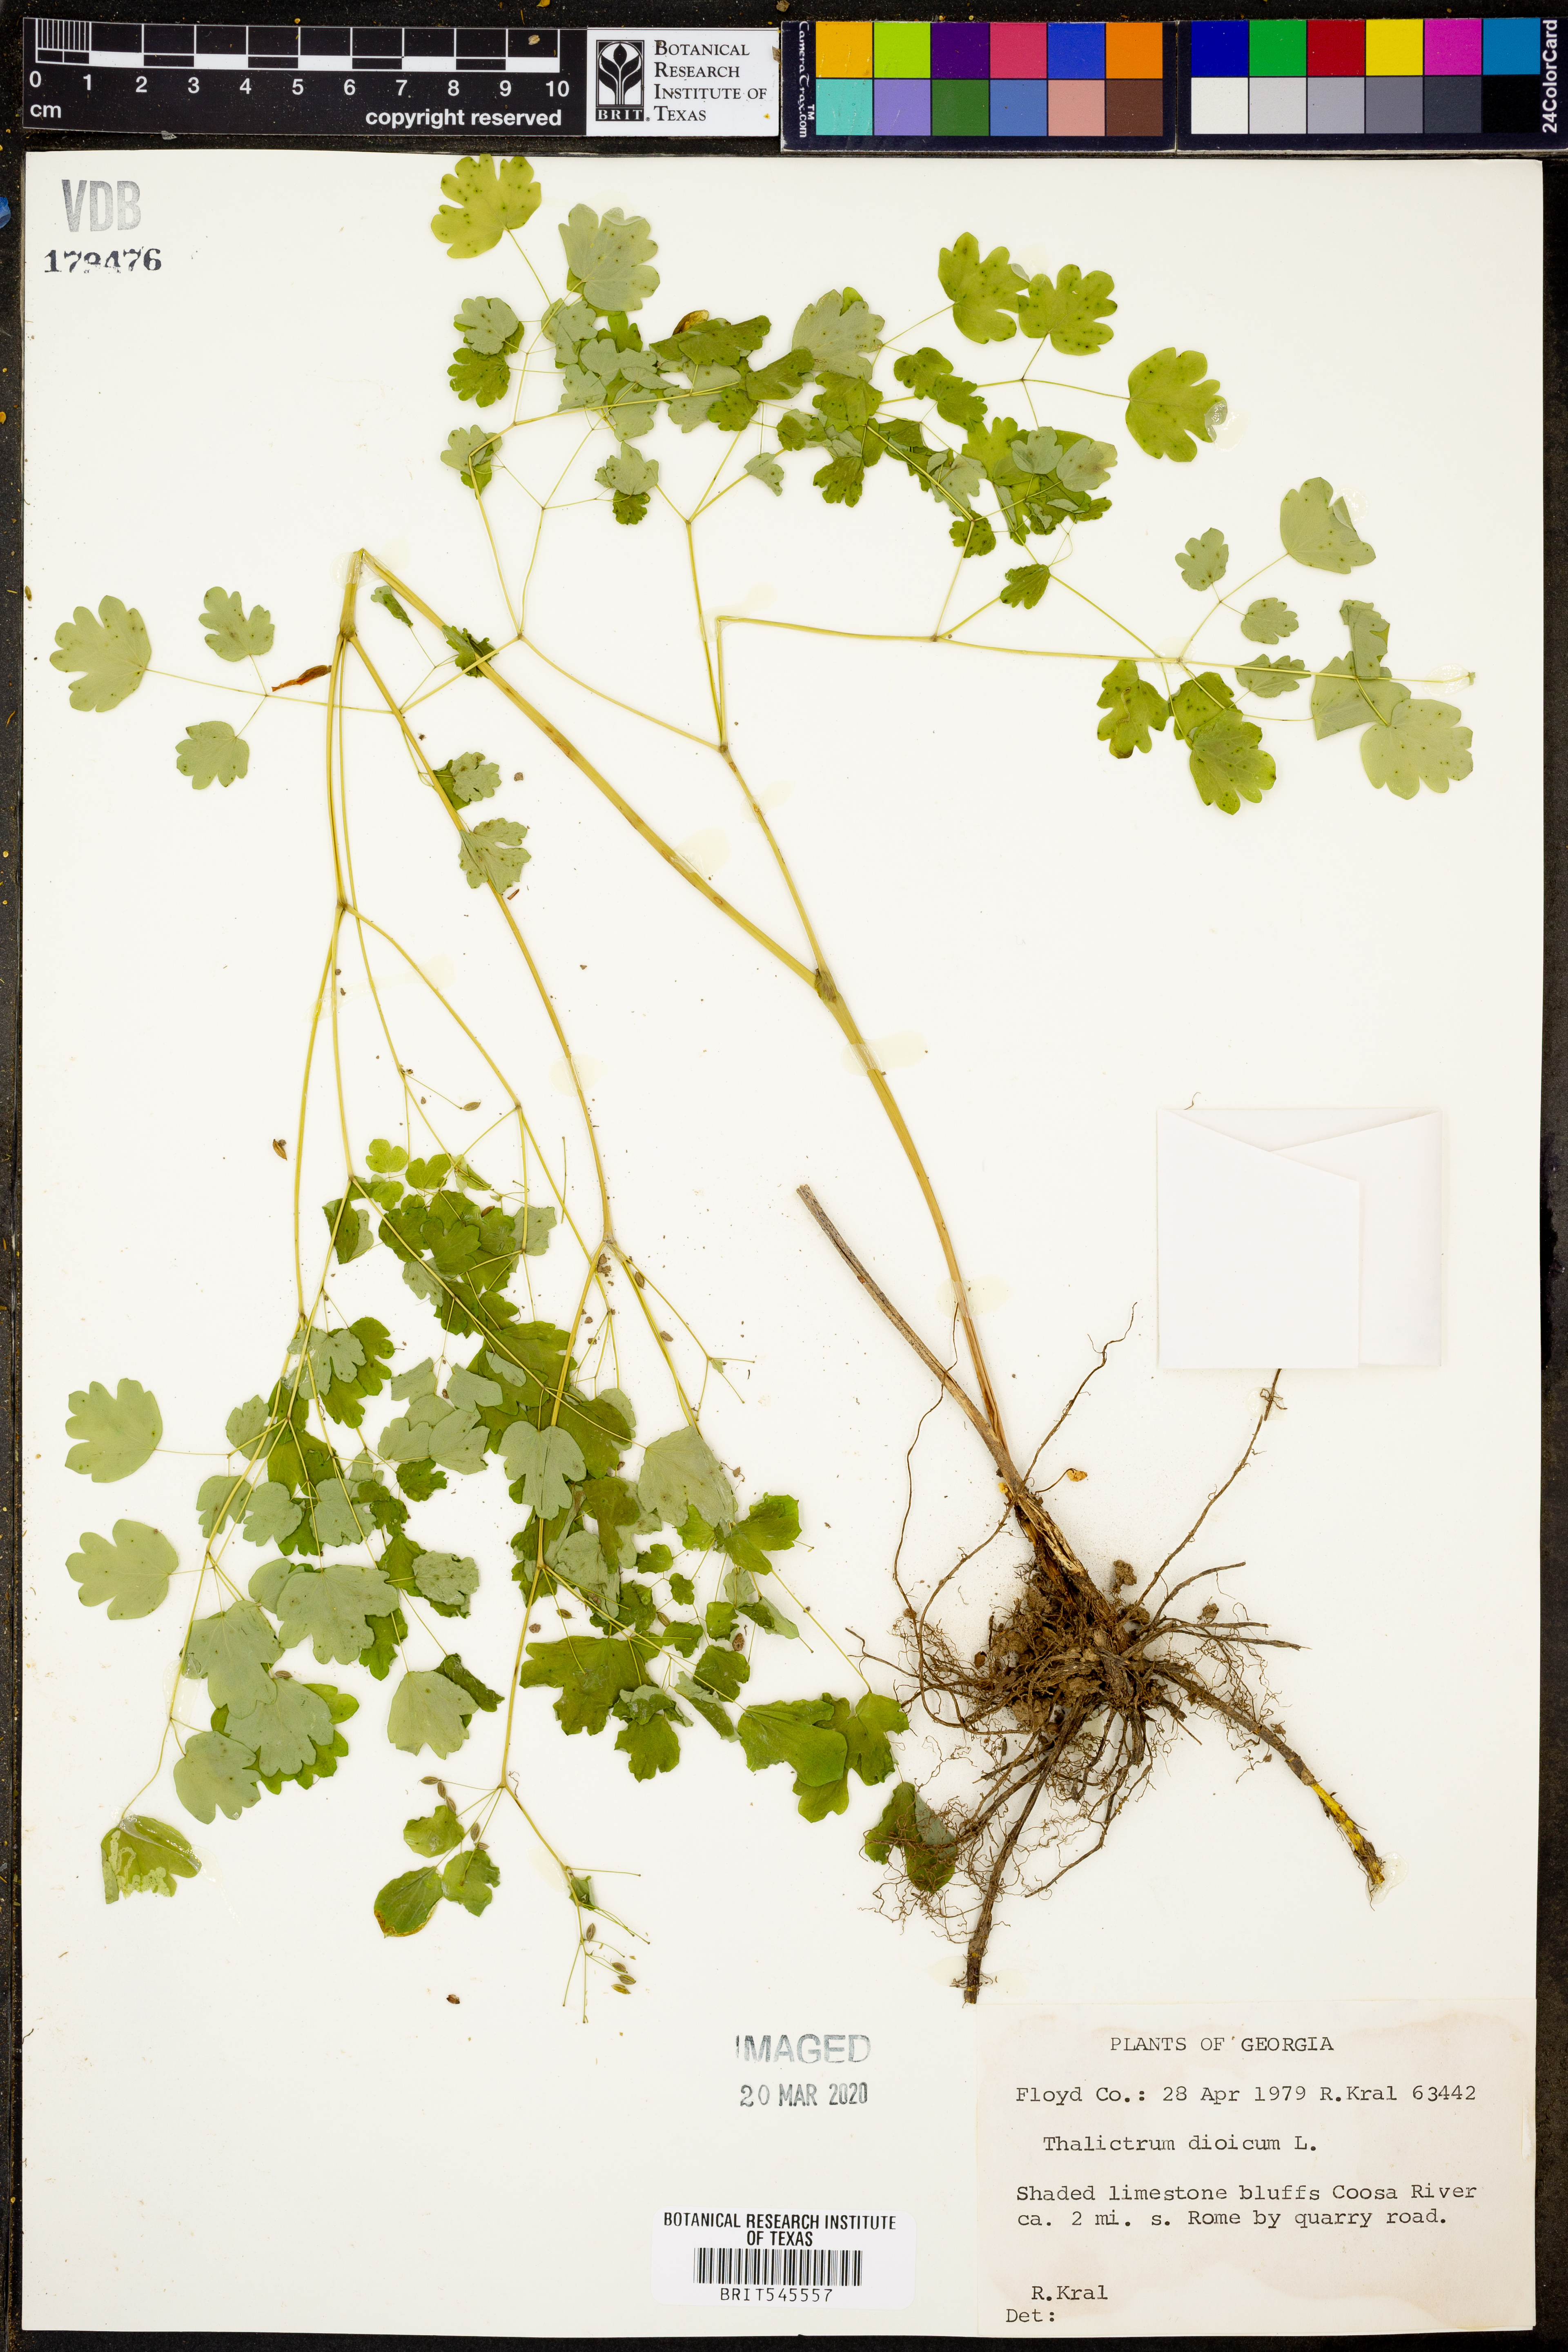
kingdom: Plantae
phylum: Tracheophyta
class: Magnoliopsida
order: Ranunculales
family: Ranunculaceae
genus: Thalictrum
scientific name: Thalictrum dioicum
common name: Early meadow-rue
